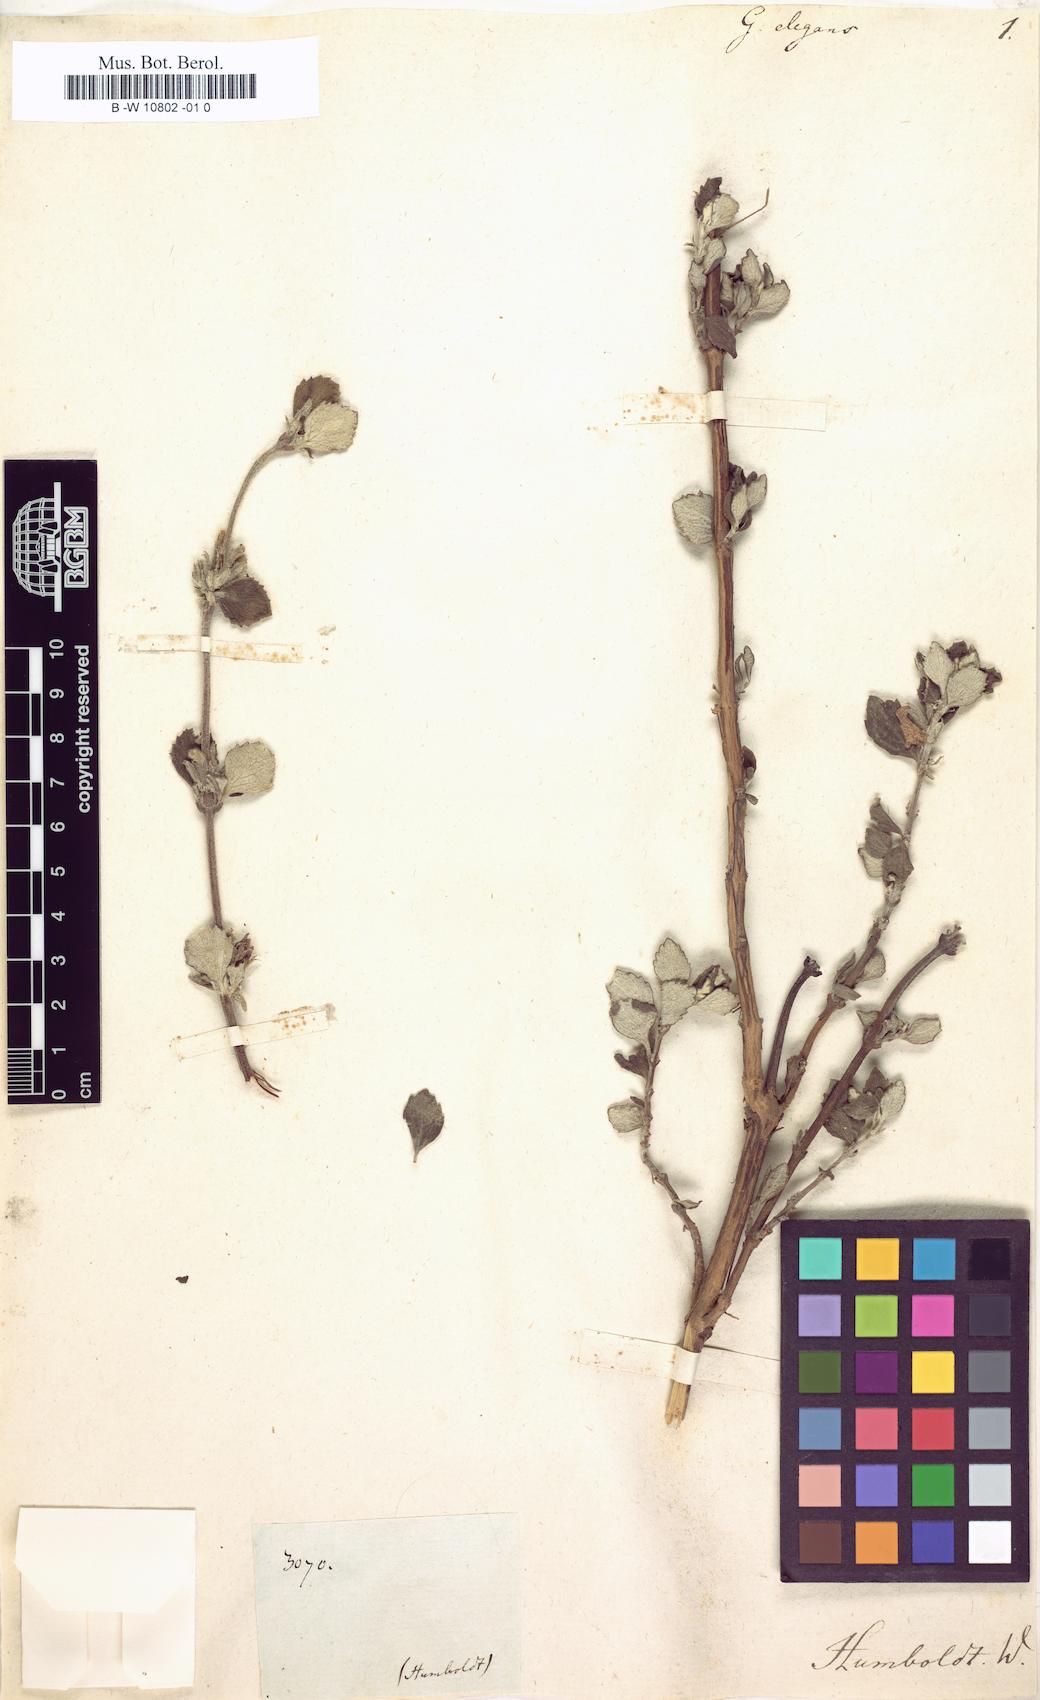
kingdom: Plantae
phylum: Tracheophyta
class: Magnoliopsida
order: Lamiales
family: Lamiaceae
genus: Clinopodium
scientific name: Clinopodium tomentosum
